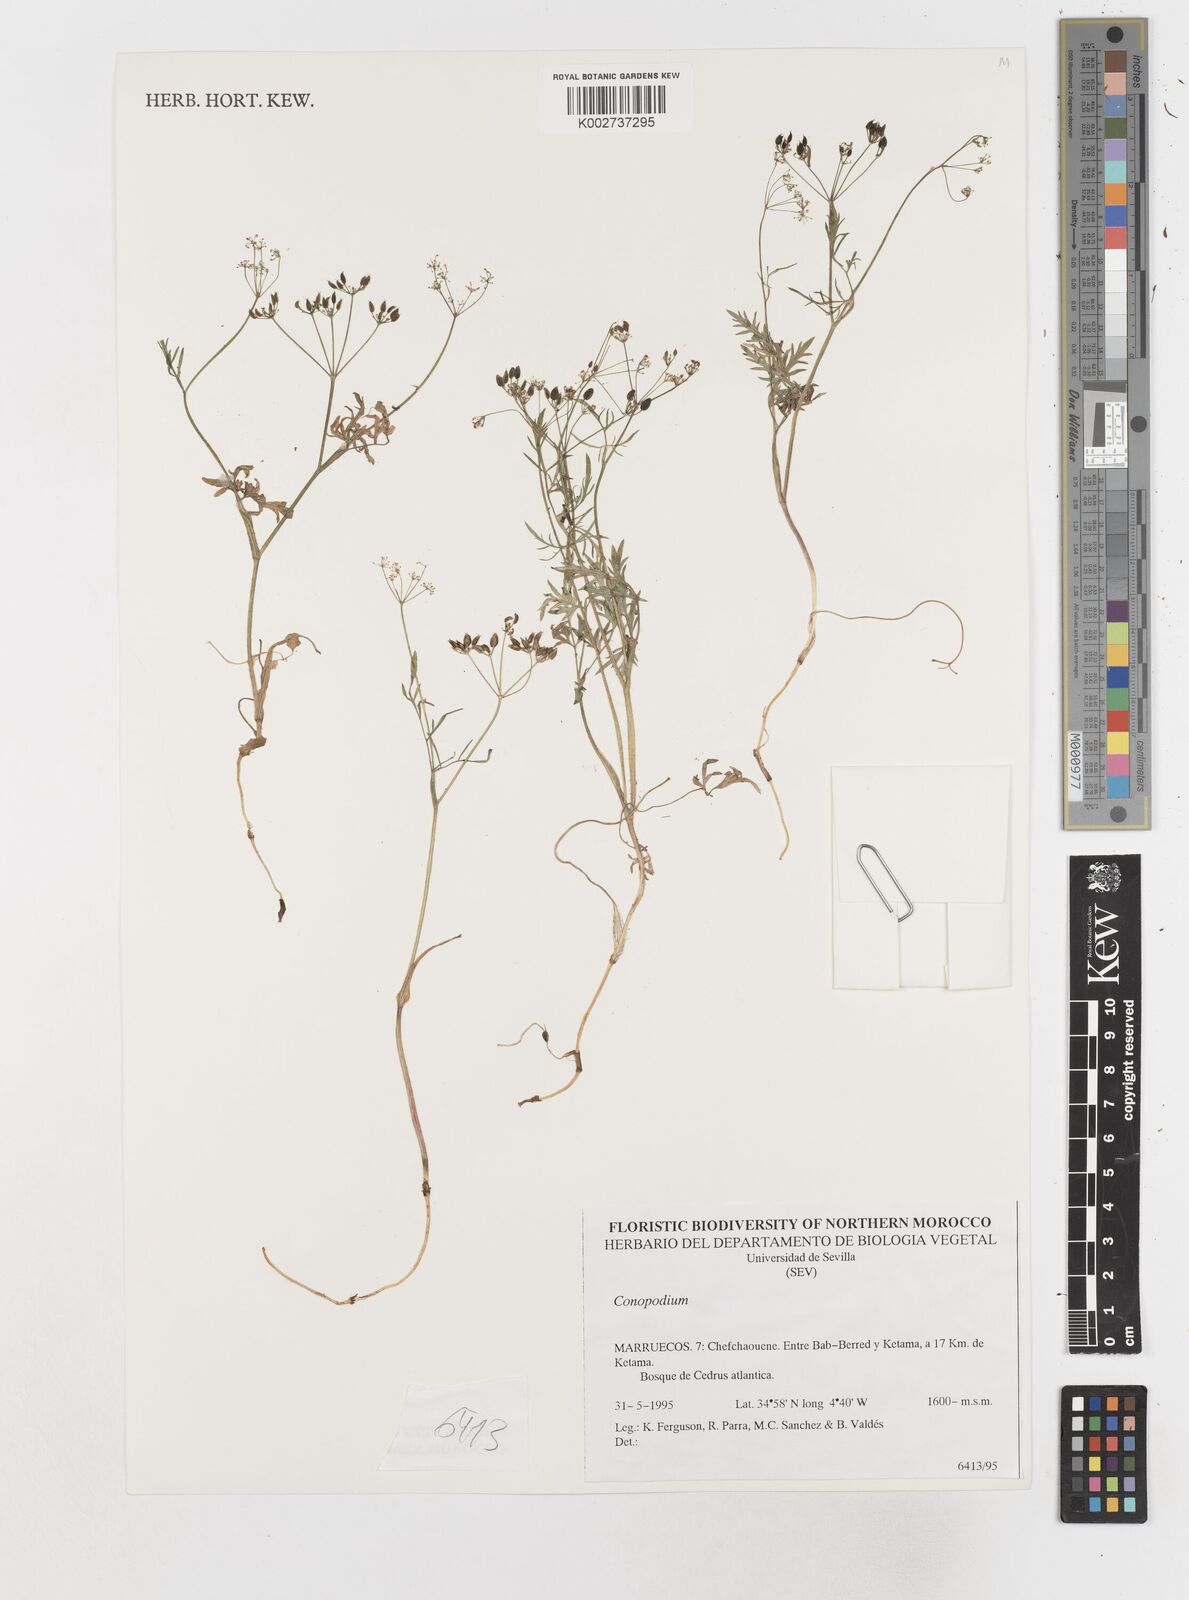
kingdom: Plantae
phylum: Tracheophyta
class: Magnoliopsida
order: Apiales
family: Apiaceae
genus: Geocaryum
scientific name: Geocaryum capillifolium
